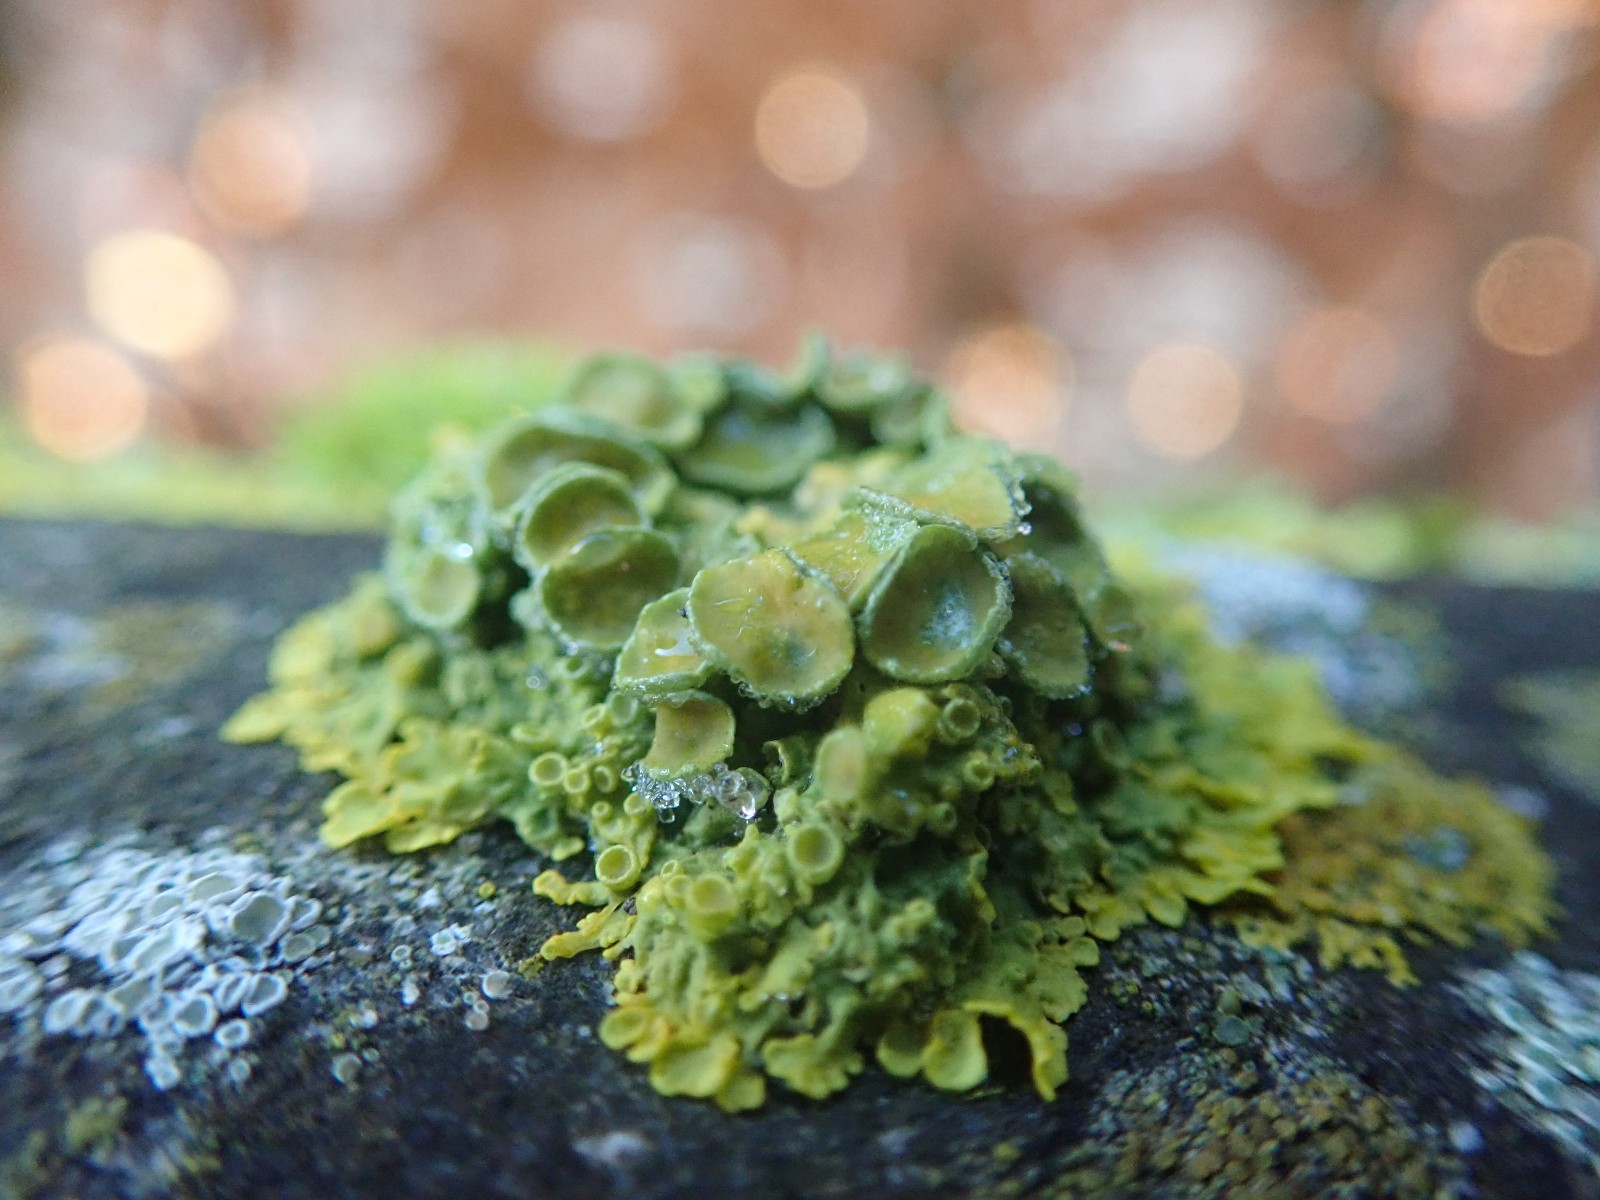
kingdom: Fungi
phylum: Ascomycota
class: Lecanoromycetes
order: Teloschistales
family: Teloschistaceae
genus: Xanthoria
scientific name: Xanthoria parietina
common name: almindelig væggelav
